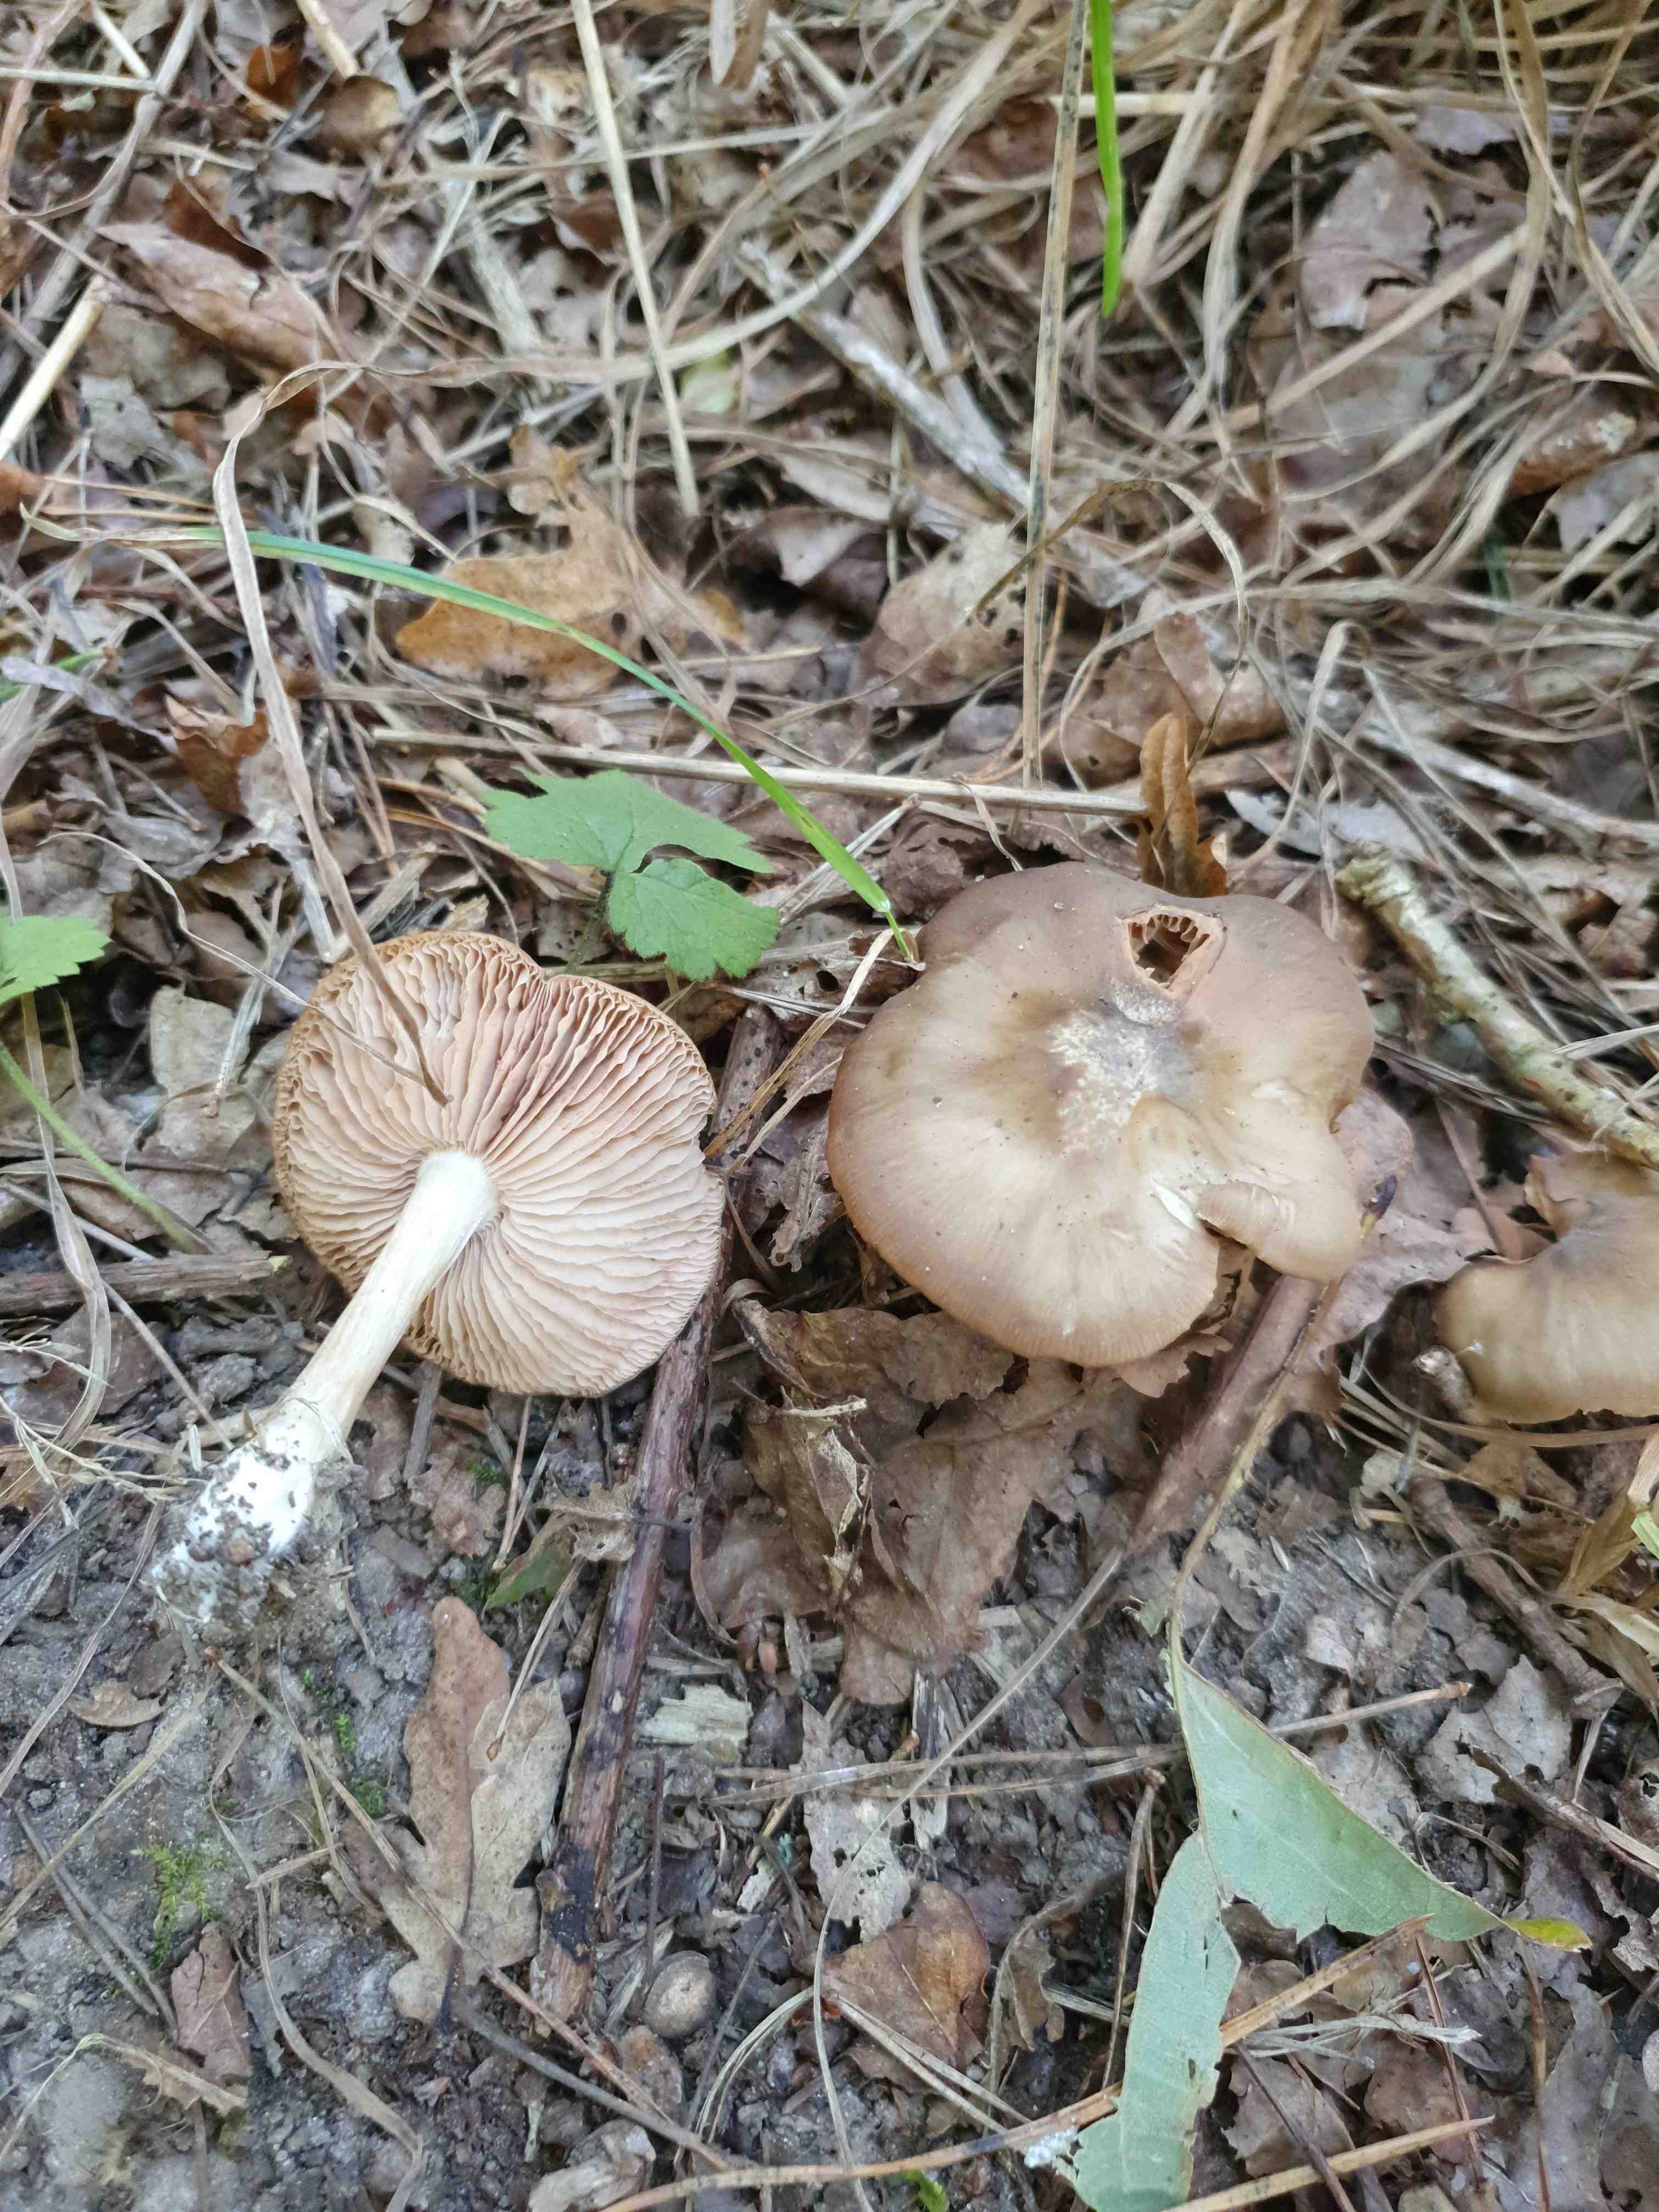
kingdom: Fungi
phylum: Basidiomycota
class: Agaricomycetes
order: Agaricales
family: Entolomataceae
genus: Entoloma
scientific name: Entoloma
